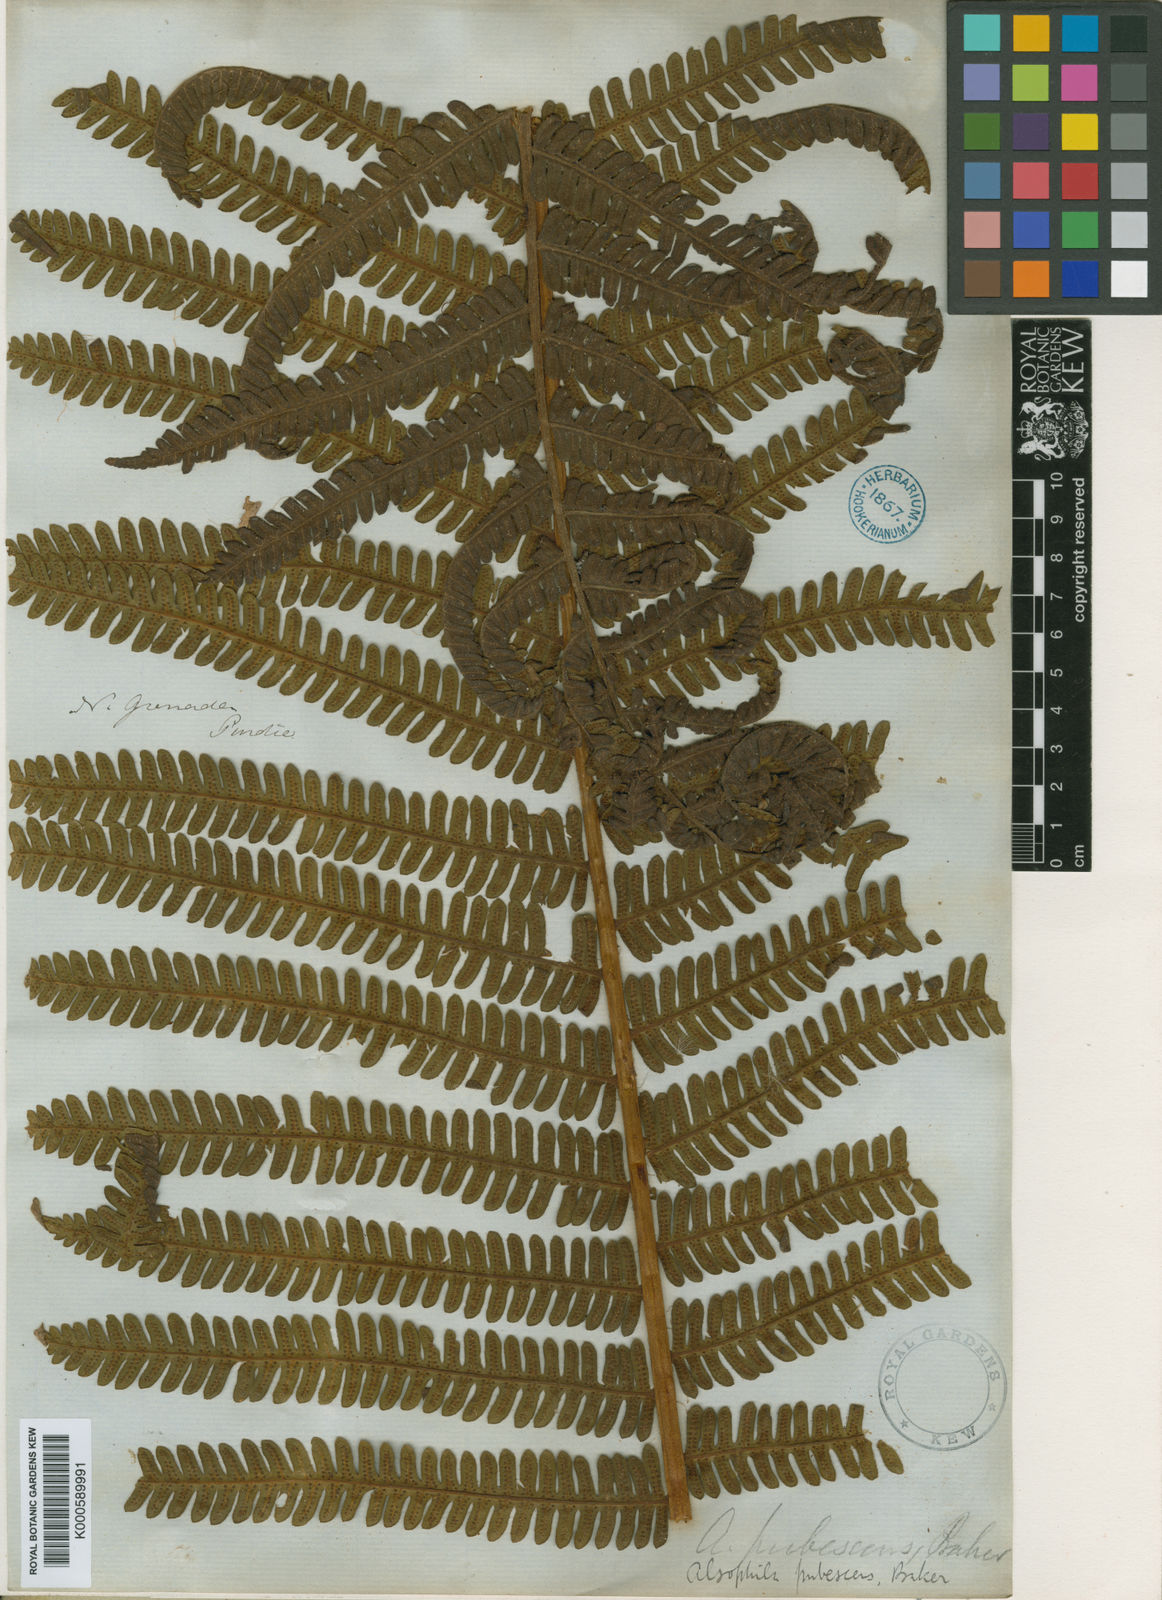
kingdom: Plantae
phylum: Tracheophyta
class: Polypodiopsida
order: Cyatheales
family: Cyatheaceae
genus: Alsophila
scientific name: Alsophila auneae
